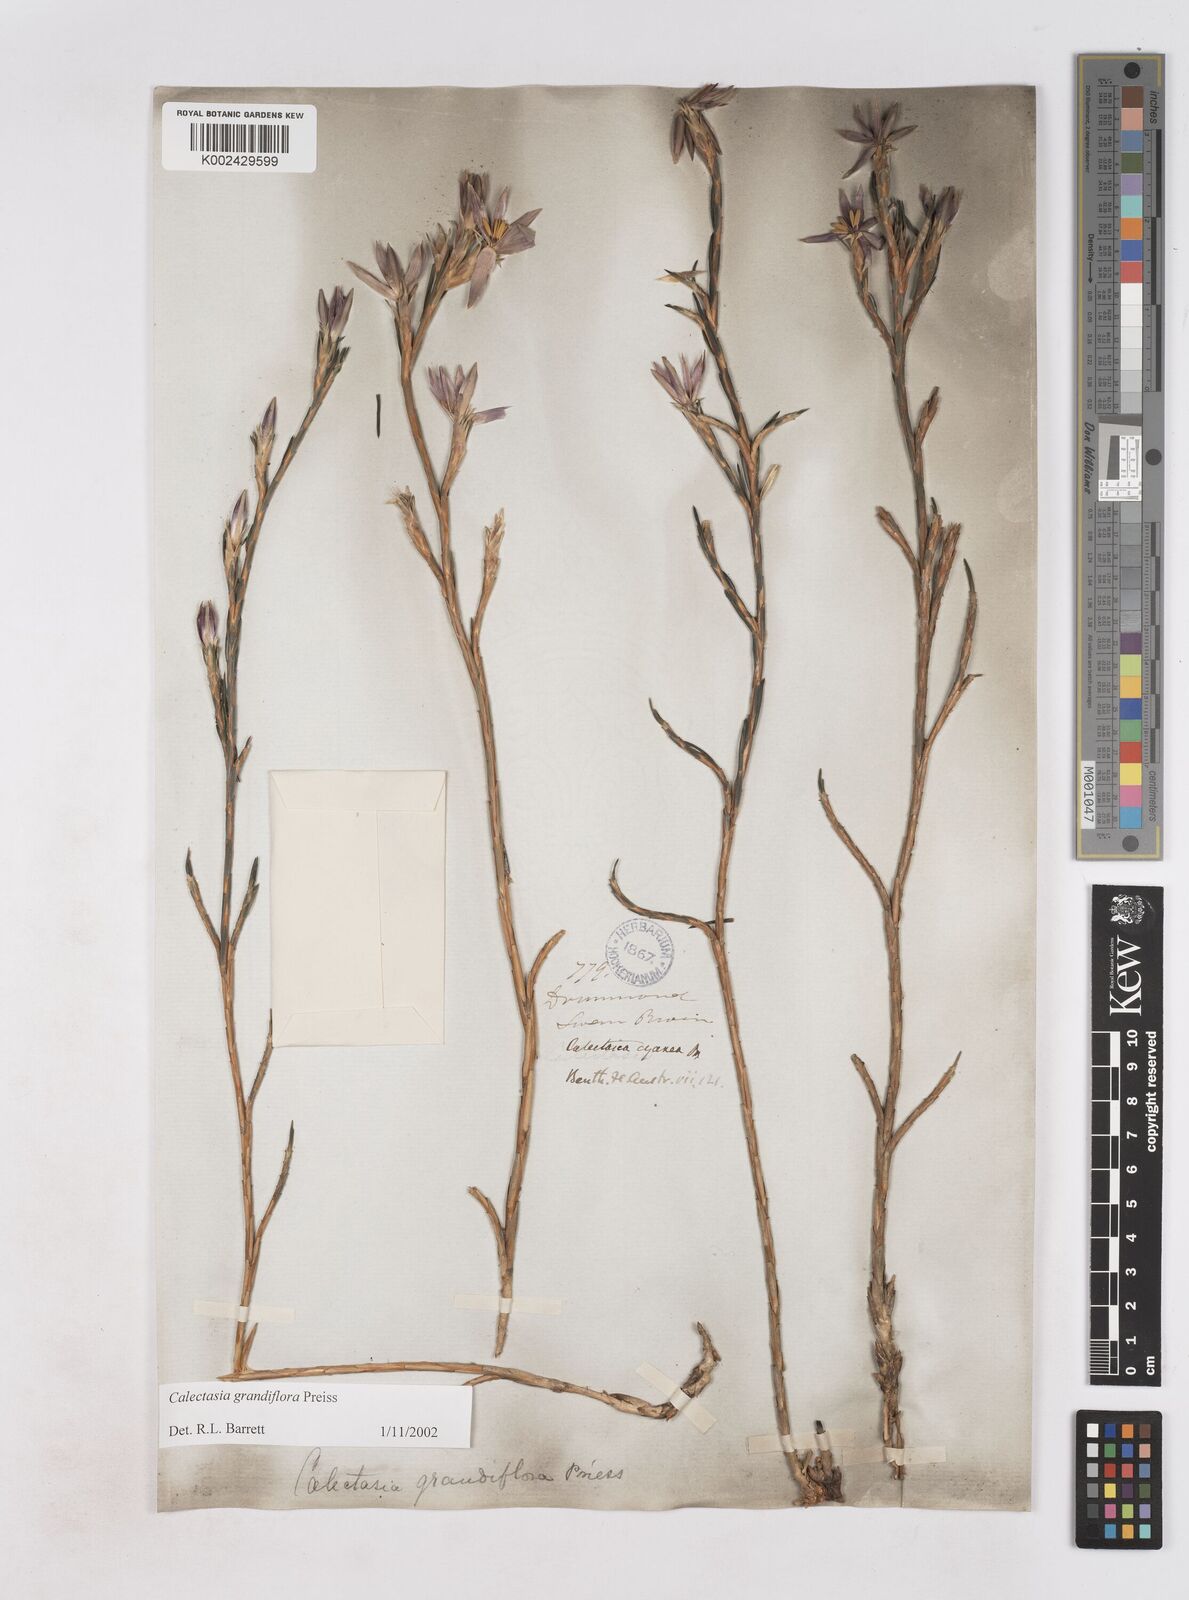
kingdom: Plantae
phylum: Tracheophyta
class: Liliopsida
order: Arecales
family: Dasypogonaceae
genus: Calectasia
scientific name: Calectasia grandiflora
